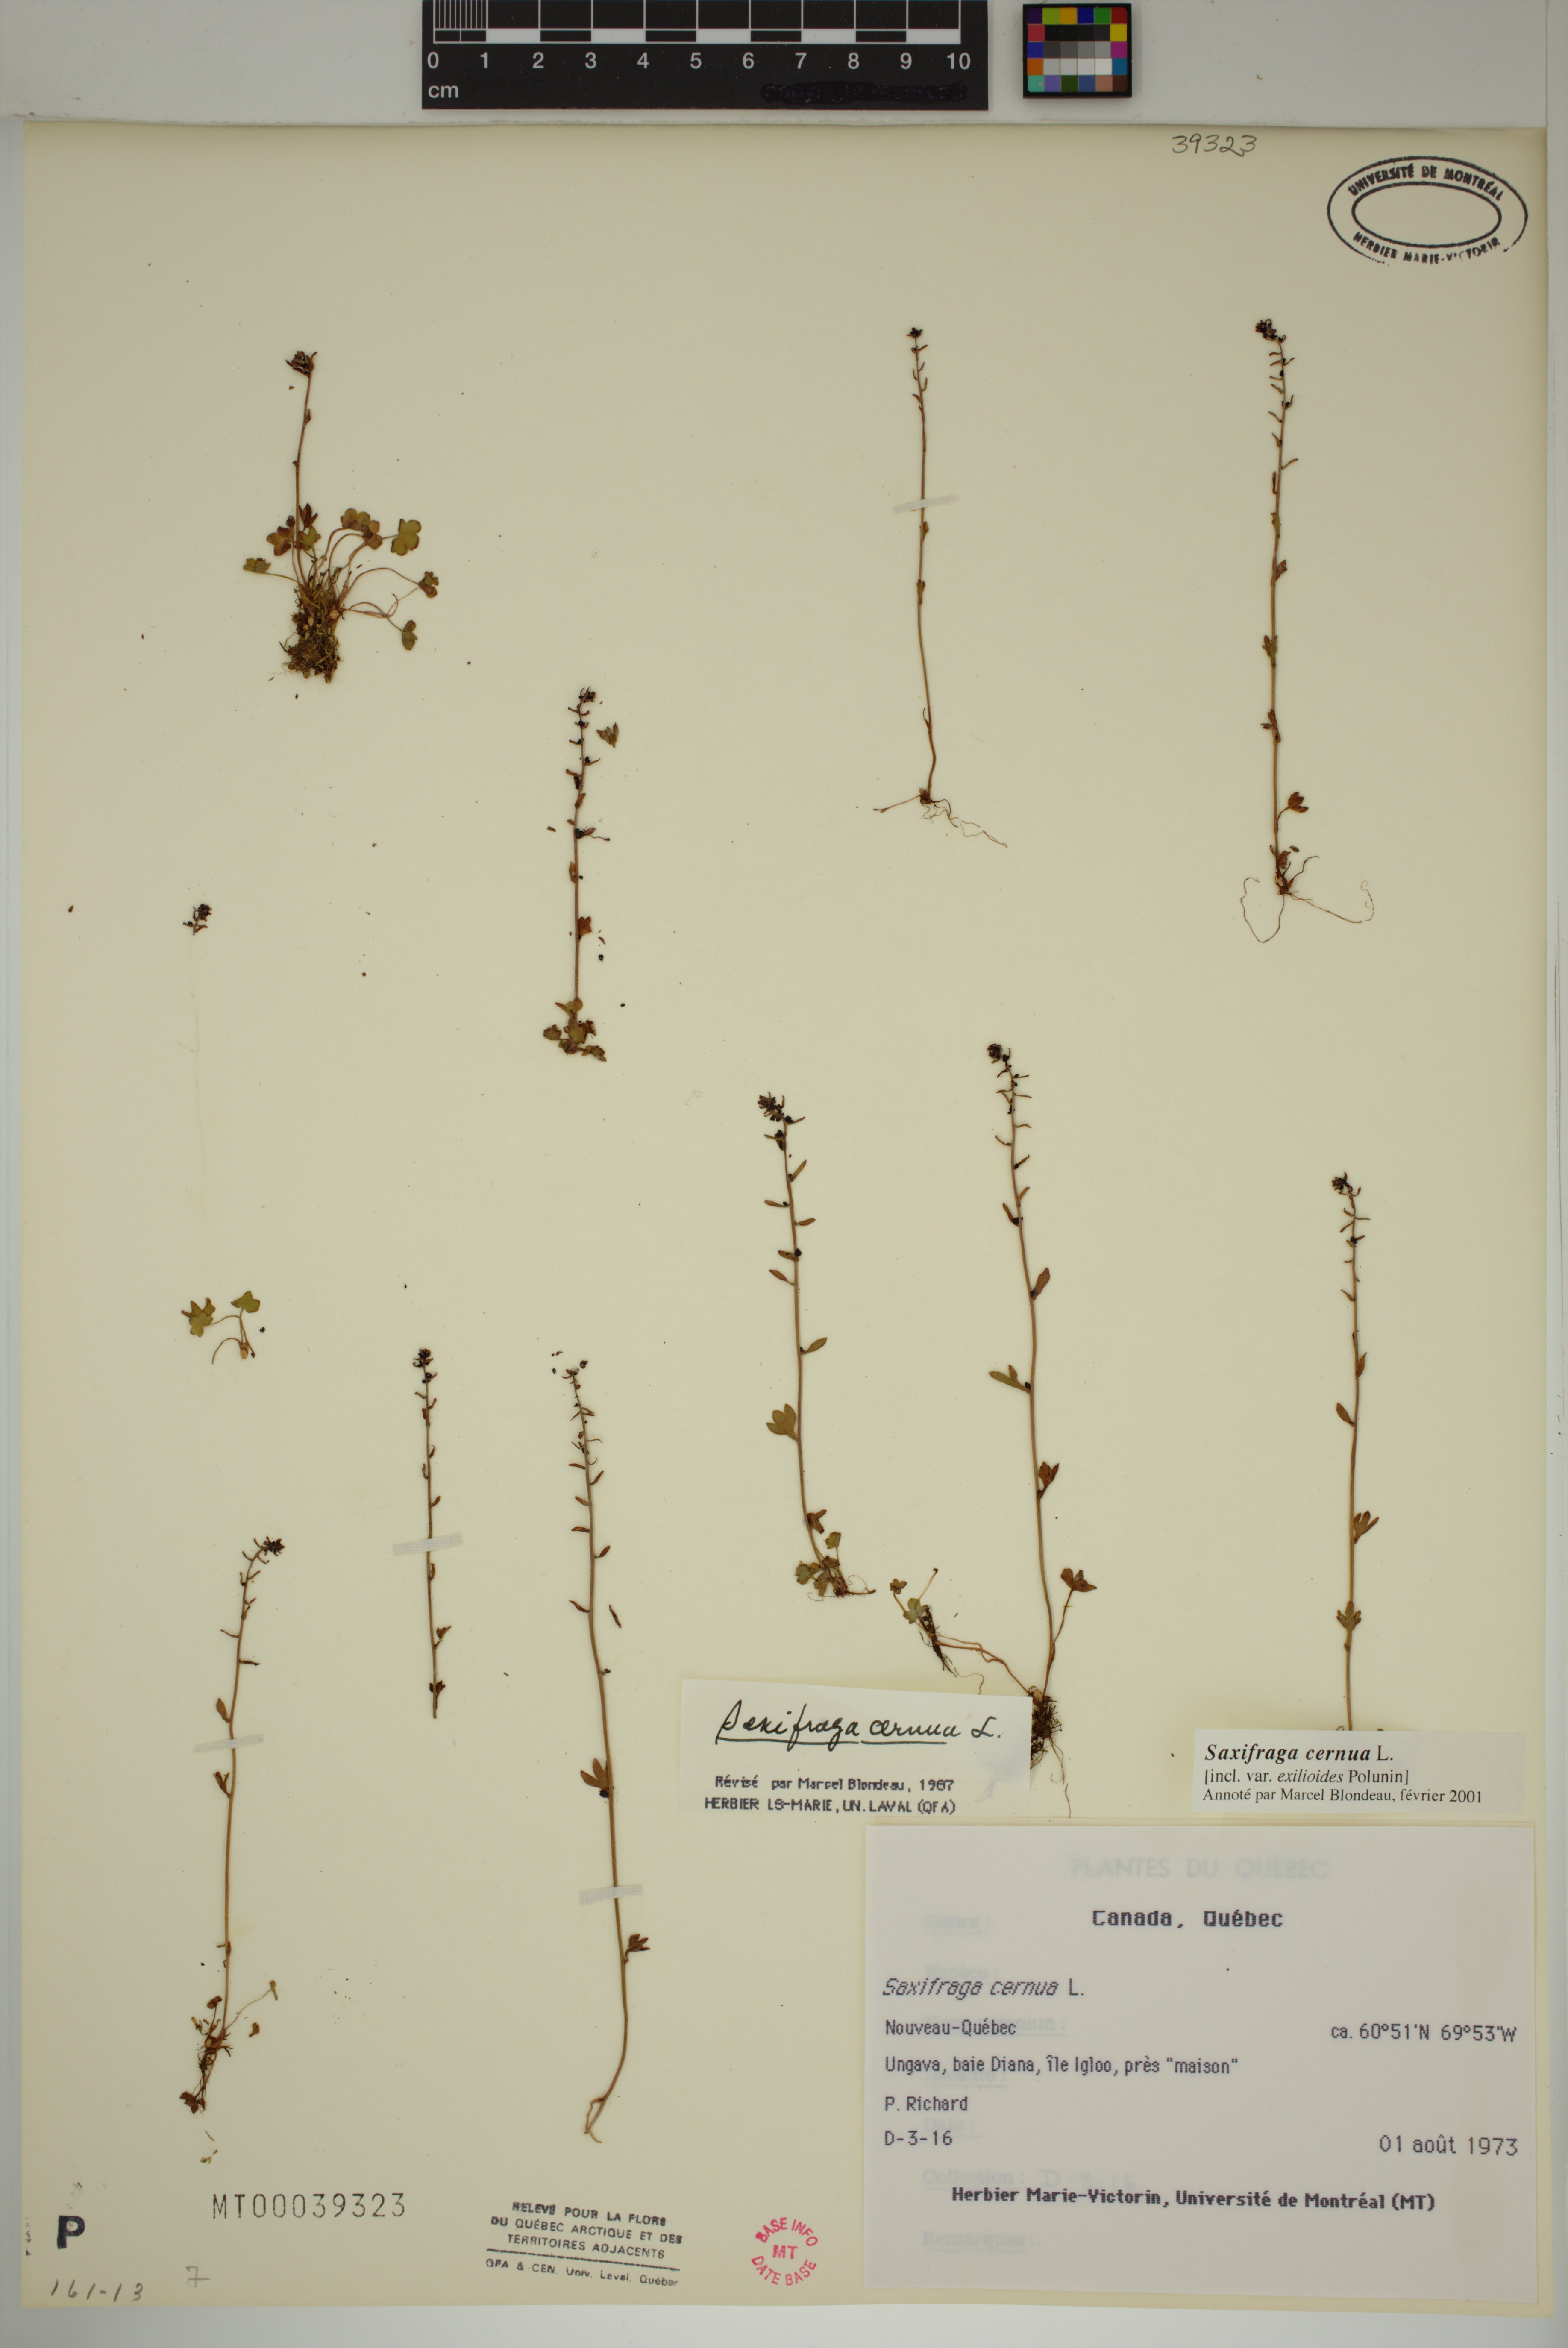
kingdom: Plantae
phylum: Tracheophyta
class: Magnoliopsida
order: Saxifragales
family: Saxifragaceae
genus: Saxifraga
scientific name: Saxifraga cernua
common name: Drooping saxifrage
